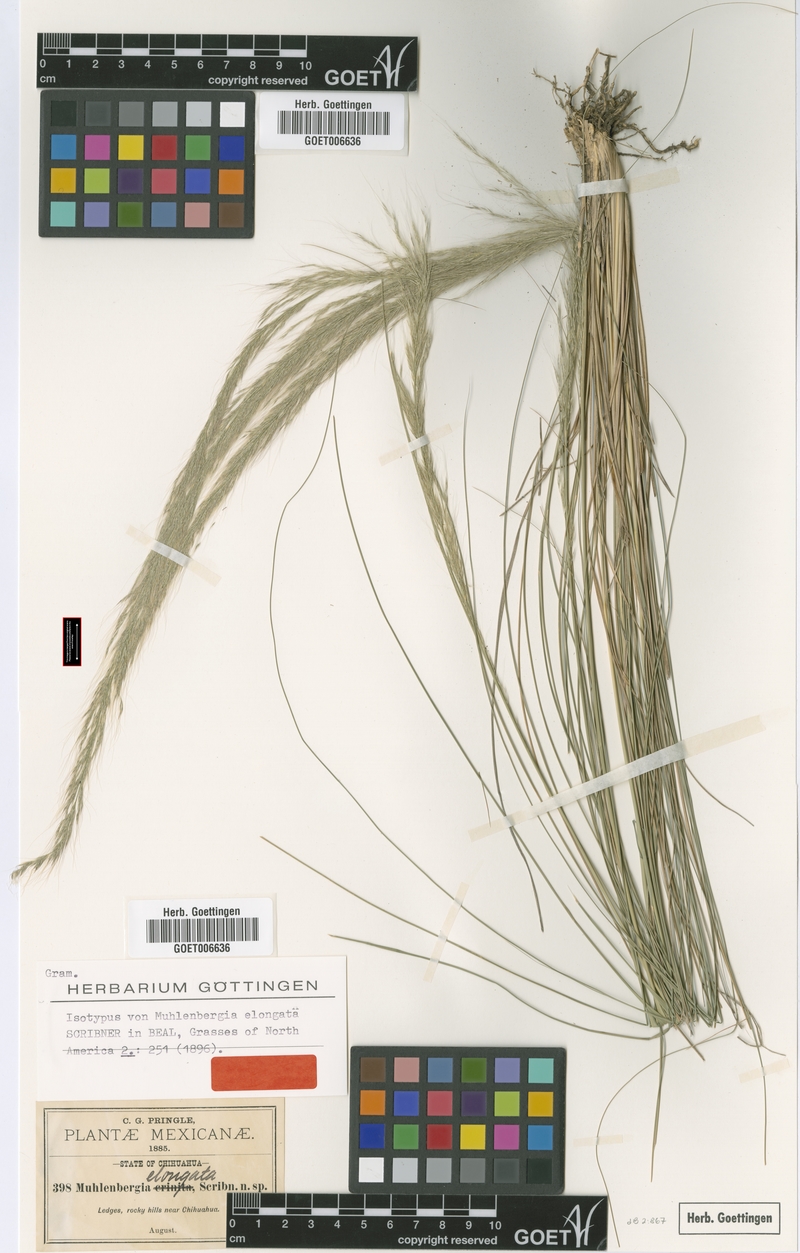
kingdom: Plantae
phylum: Tracheophyta
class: Liliopsida
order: Poales
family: Poaceae
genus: Muhlenbergia
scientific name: Muhlenbergia elongata
